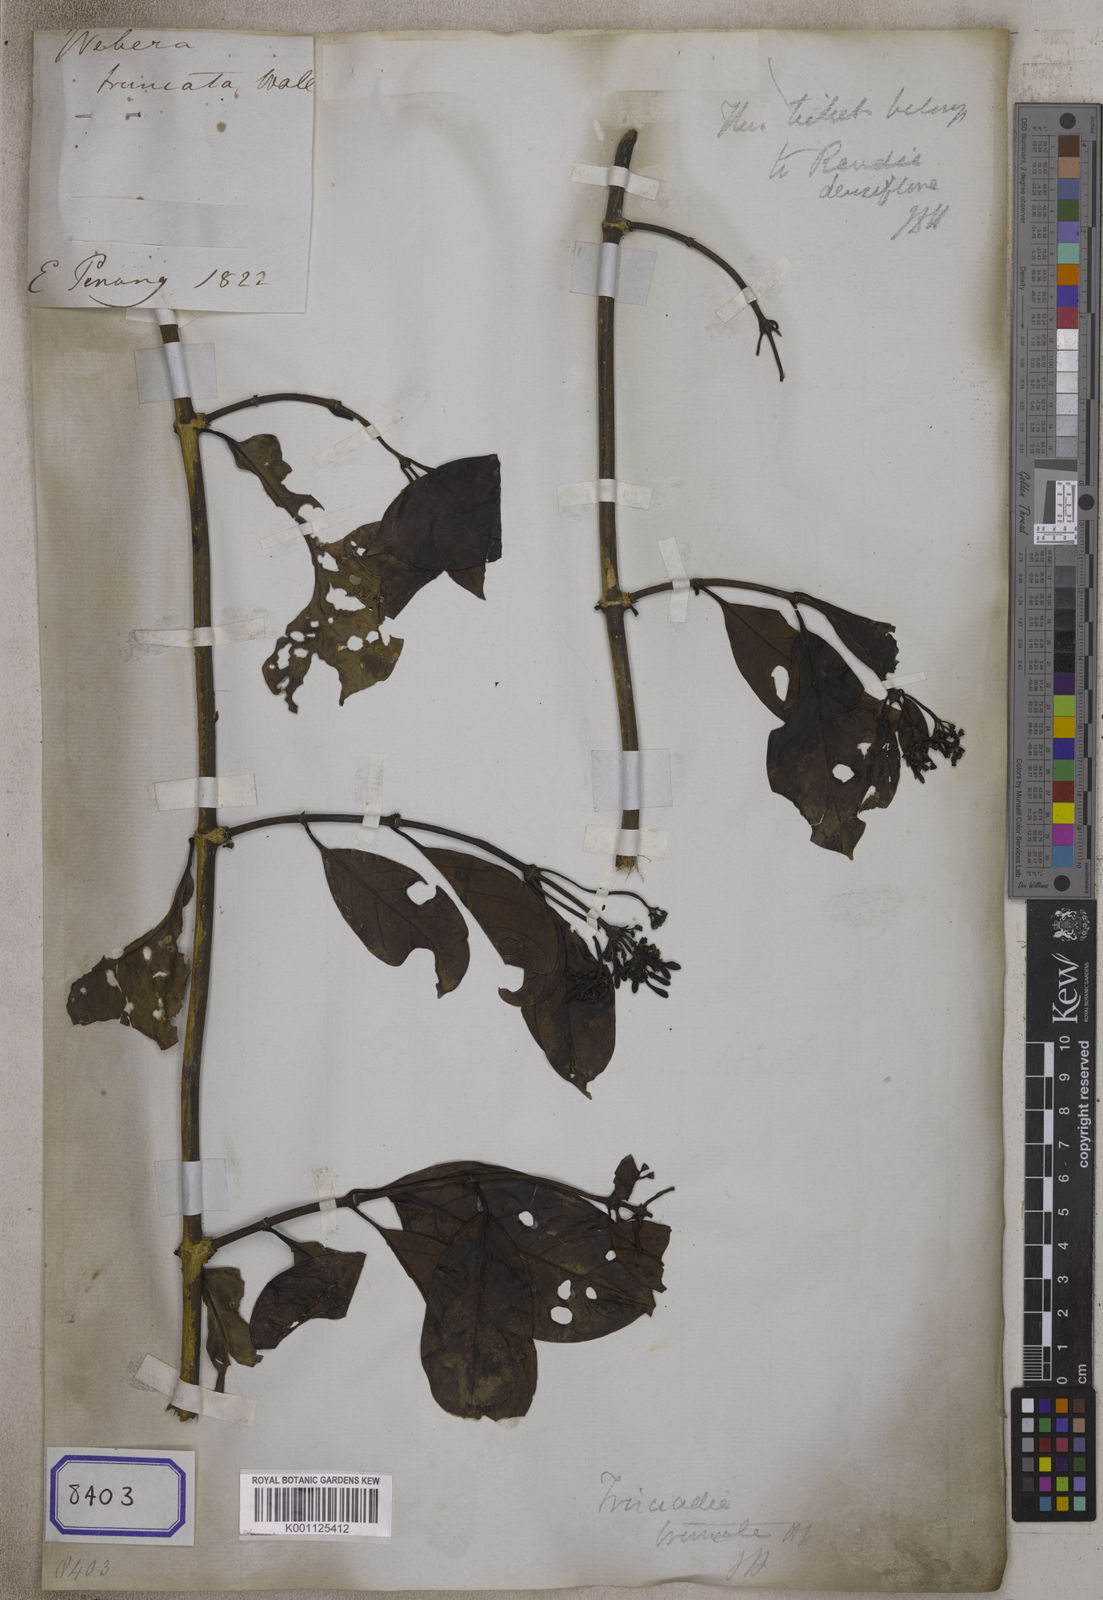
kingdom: Plantae
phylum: Tracheophyta
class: Magnoliopsida
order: Gentianales
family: Rubiaceae
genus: Aidia
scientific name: Aidia
